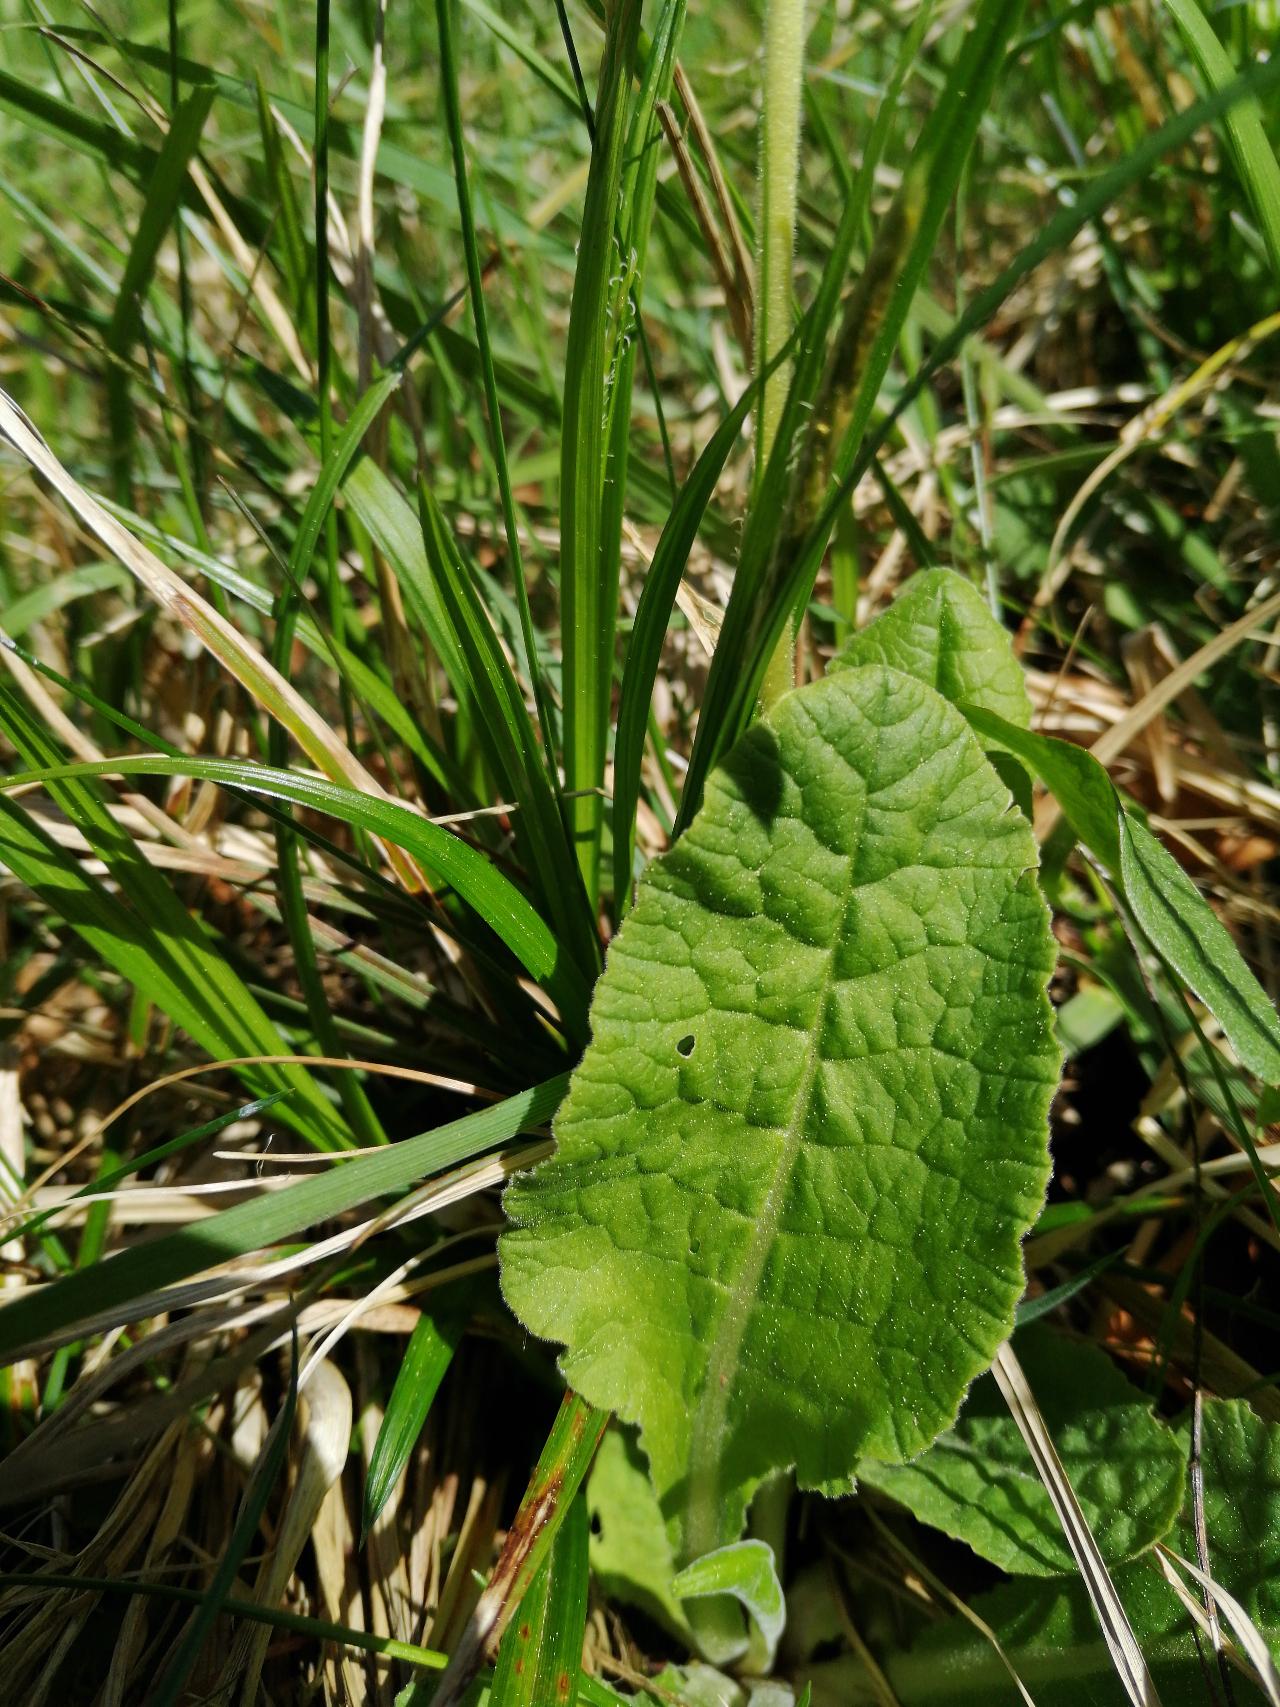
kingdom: Plantae
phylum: Tracheophyta
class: Magnoliopsida
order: Ericales
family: Primulaceae
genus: Primula
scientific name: Primula veris
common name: Hulkravet kodriver
